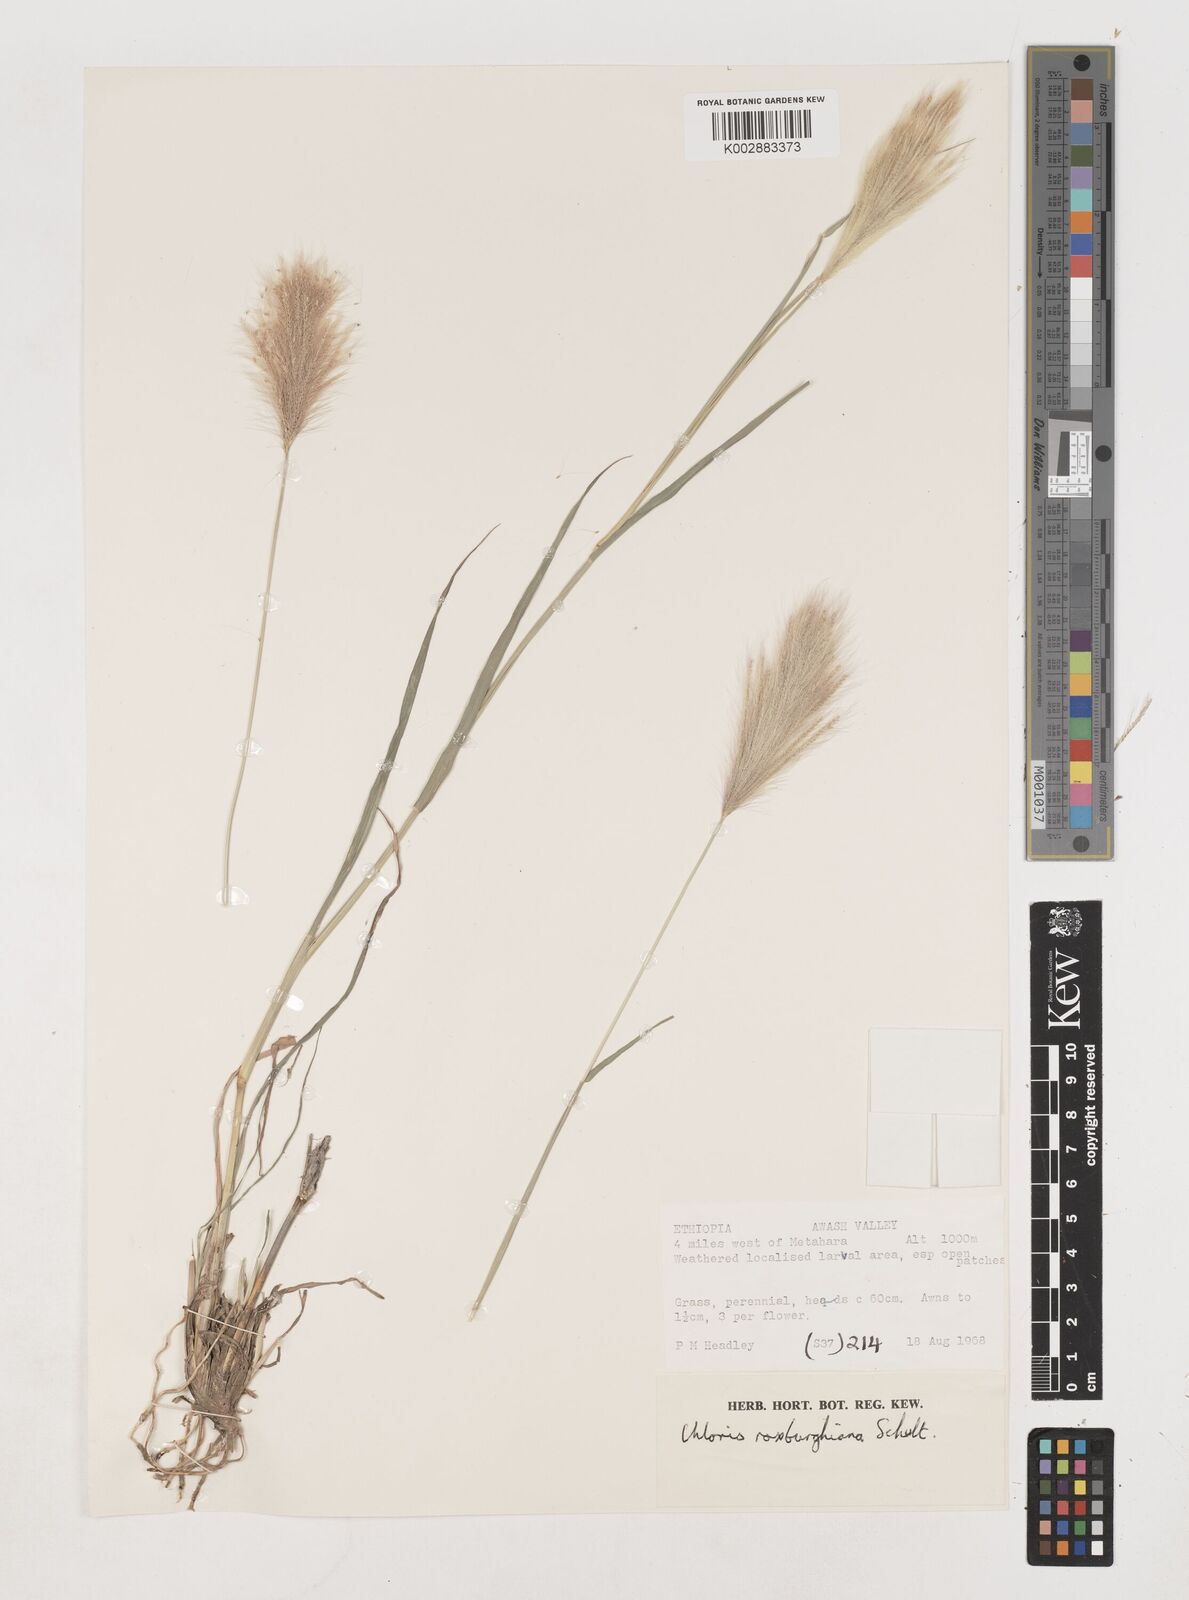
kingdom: Plantae
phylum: Tracheophyta
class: Liliopsida
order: Poales
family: Poaceae
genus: Tetrapogon
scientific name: Tetrapogon roxburghiana
